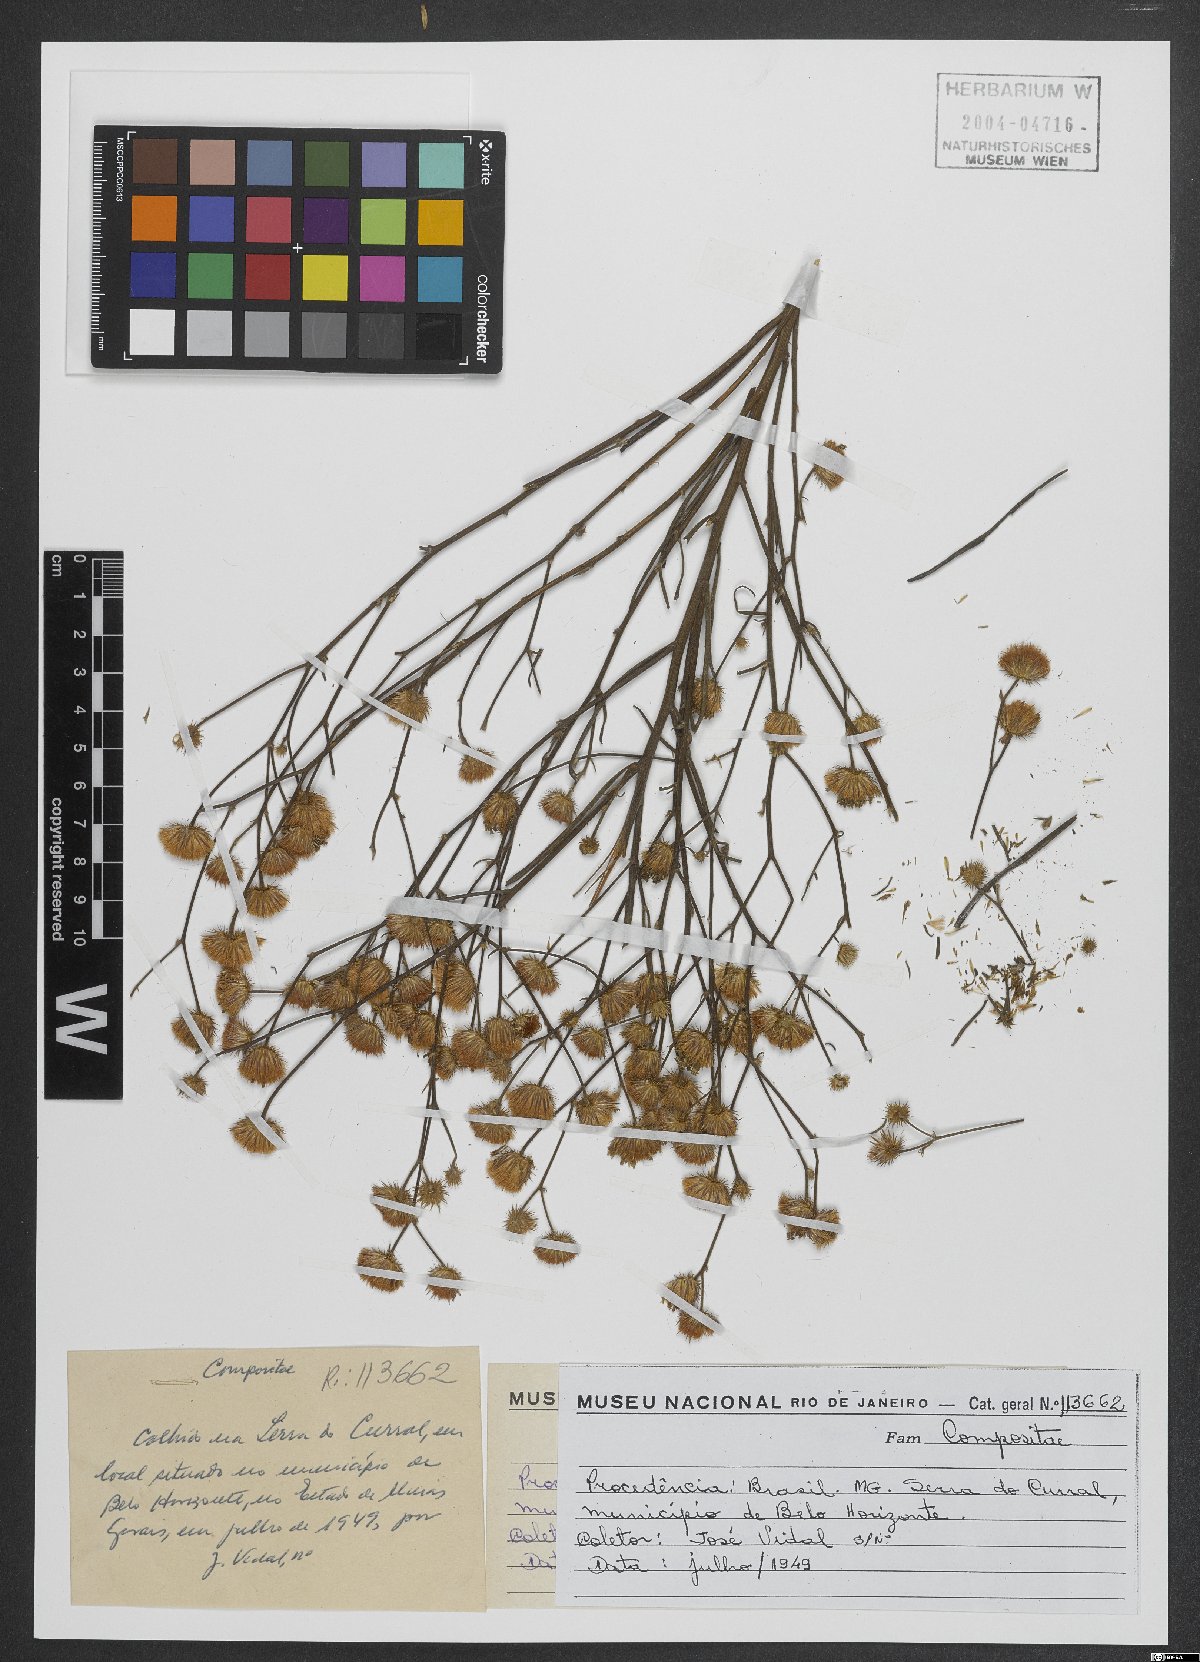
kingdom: Plantae
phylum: Tracheophyta
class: Magnoliopsida
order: Asterales
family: Asteraceae
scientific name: Asteraceae
